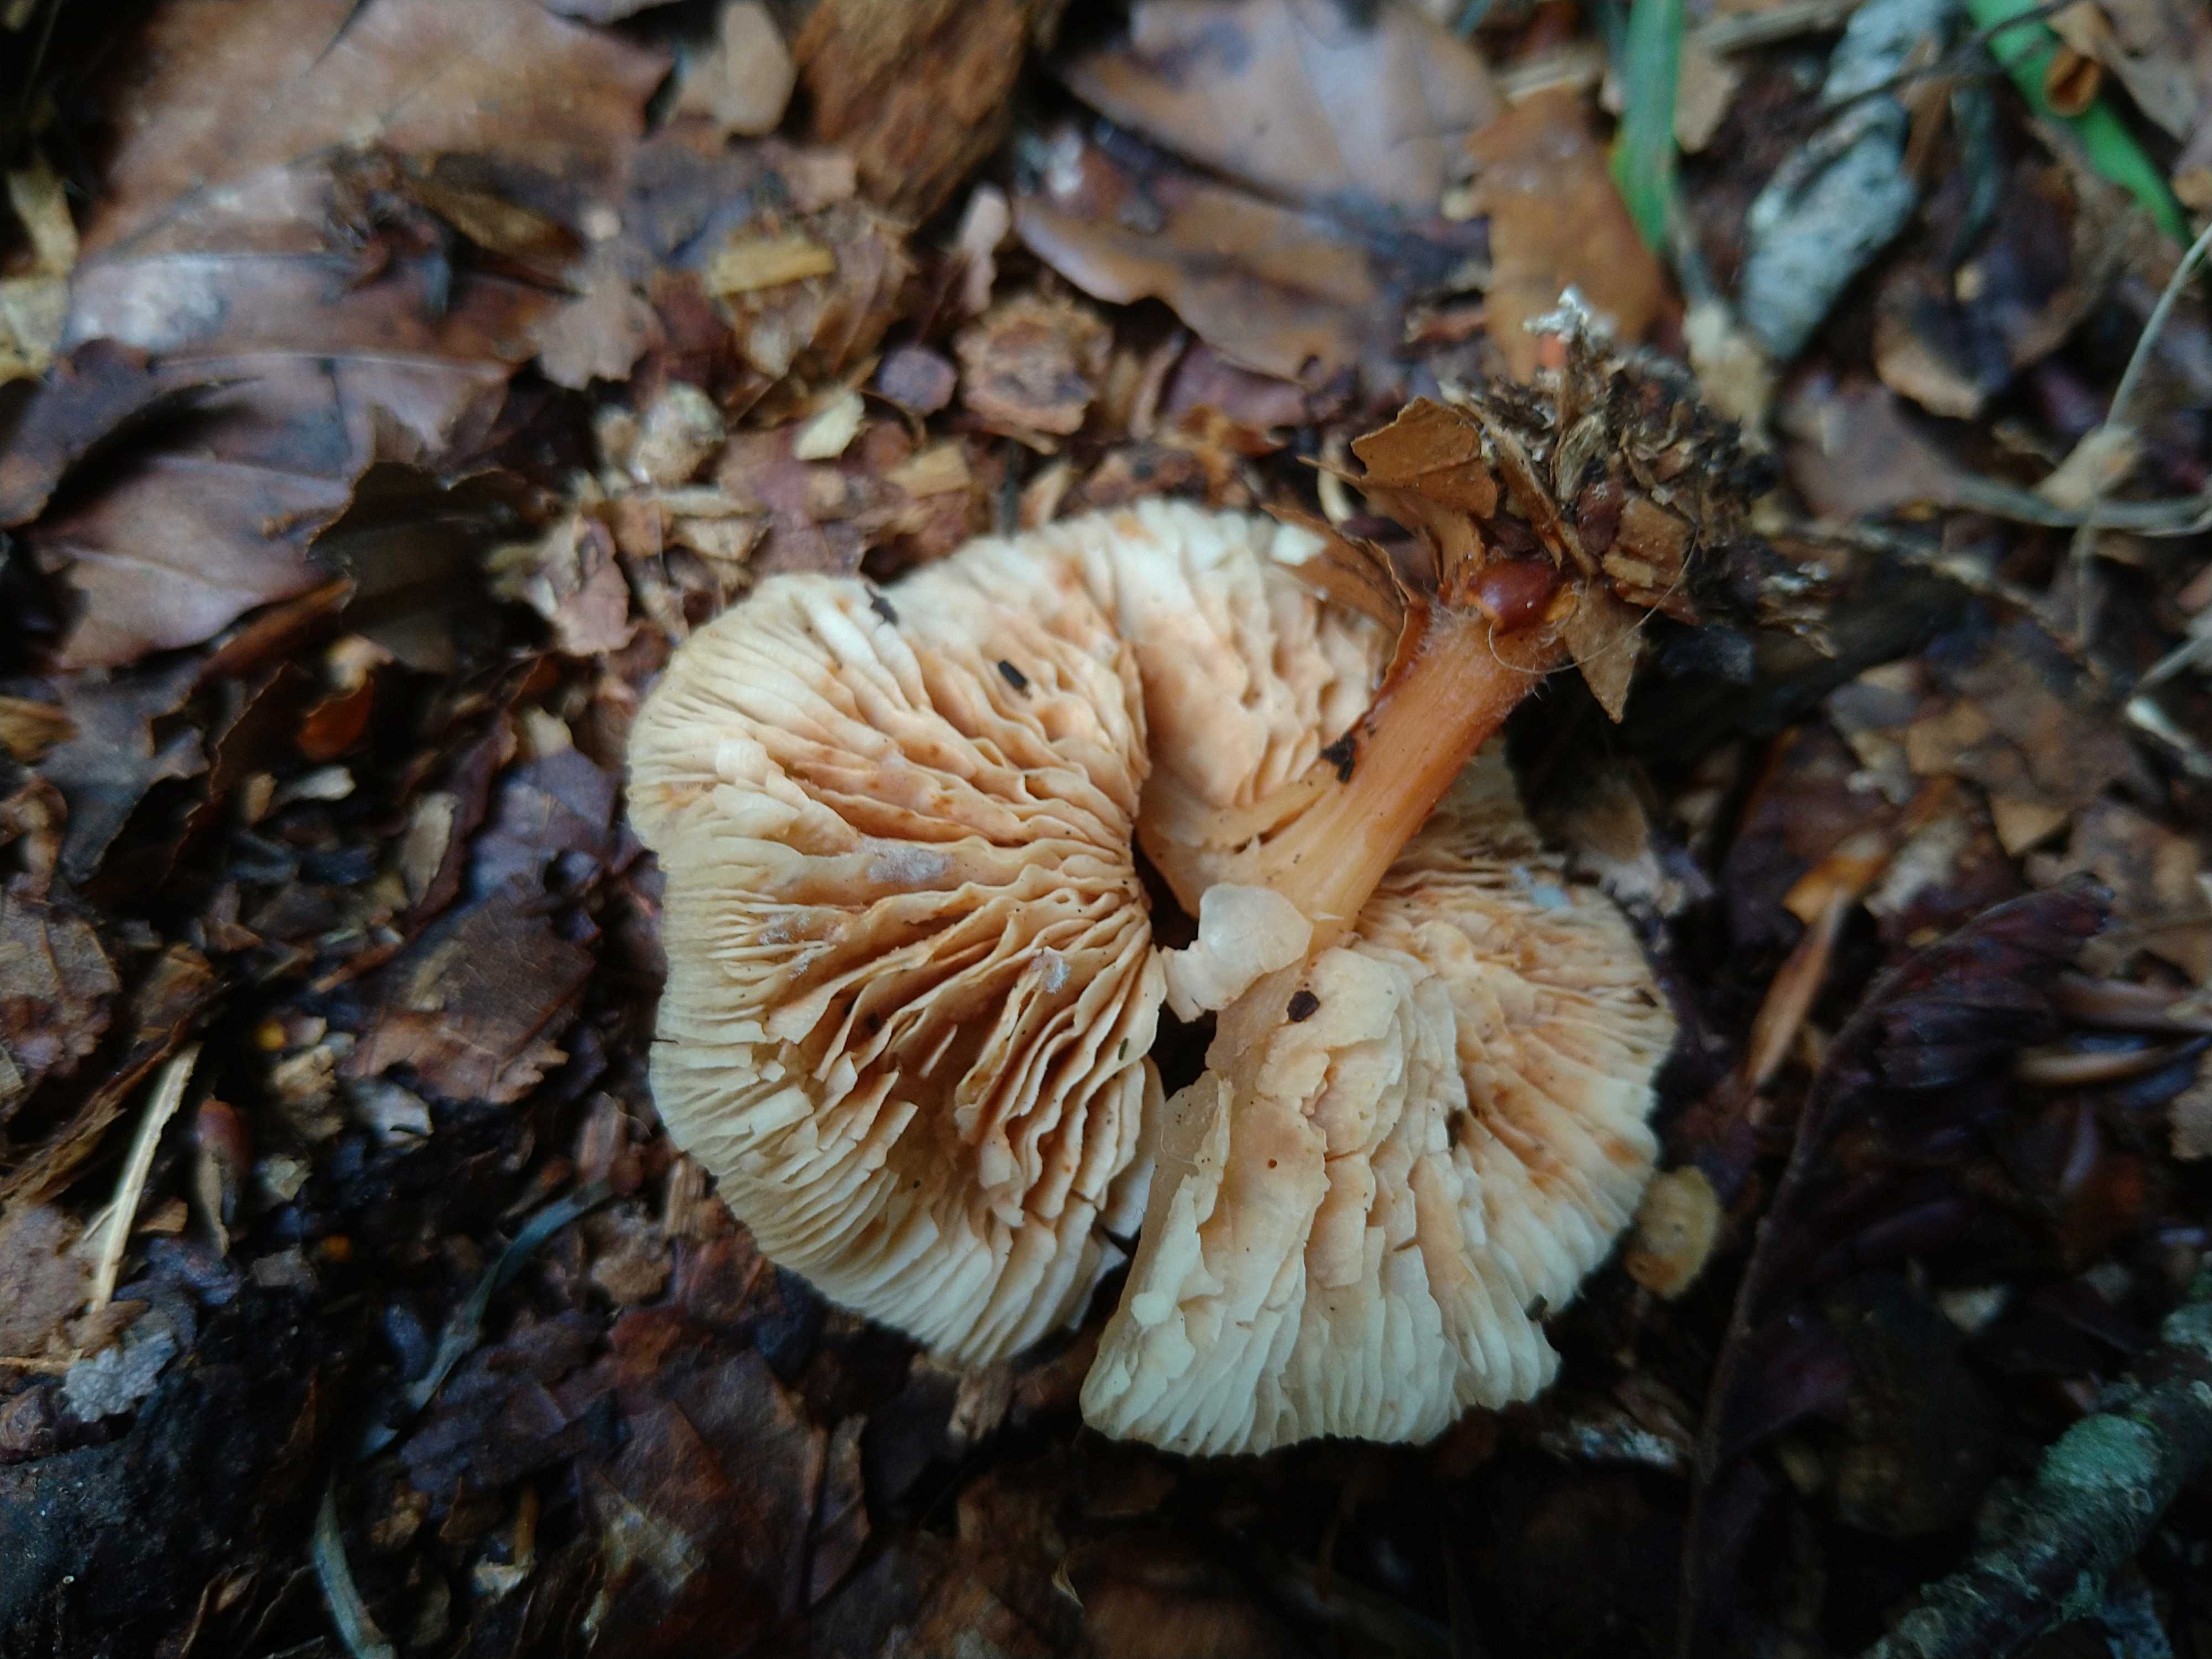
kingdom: Fungi
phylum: Basidiomycota
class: Agaricomycetes
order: Agaricales
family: Omphalotaceae
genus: Gymnopus
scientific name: Gymnopus
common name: fladhat
